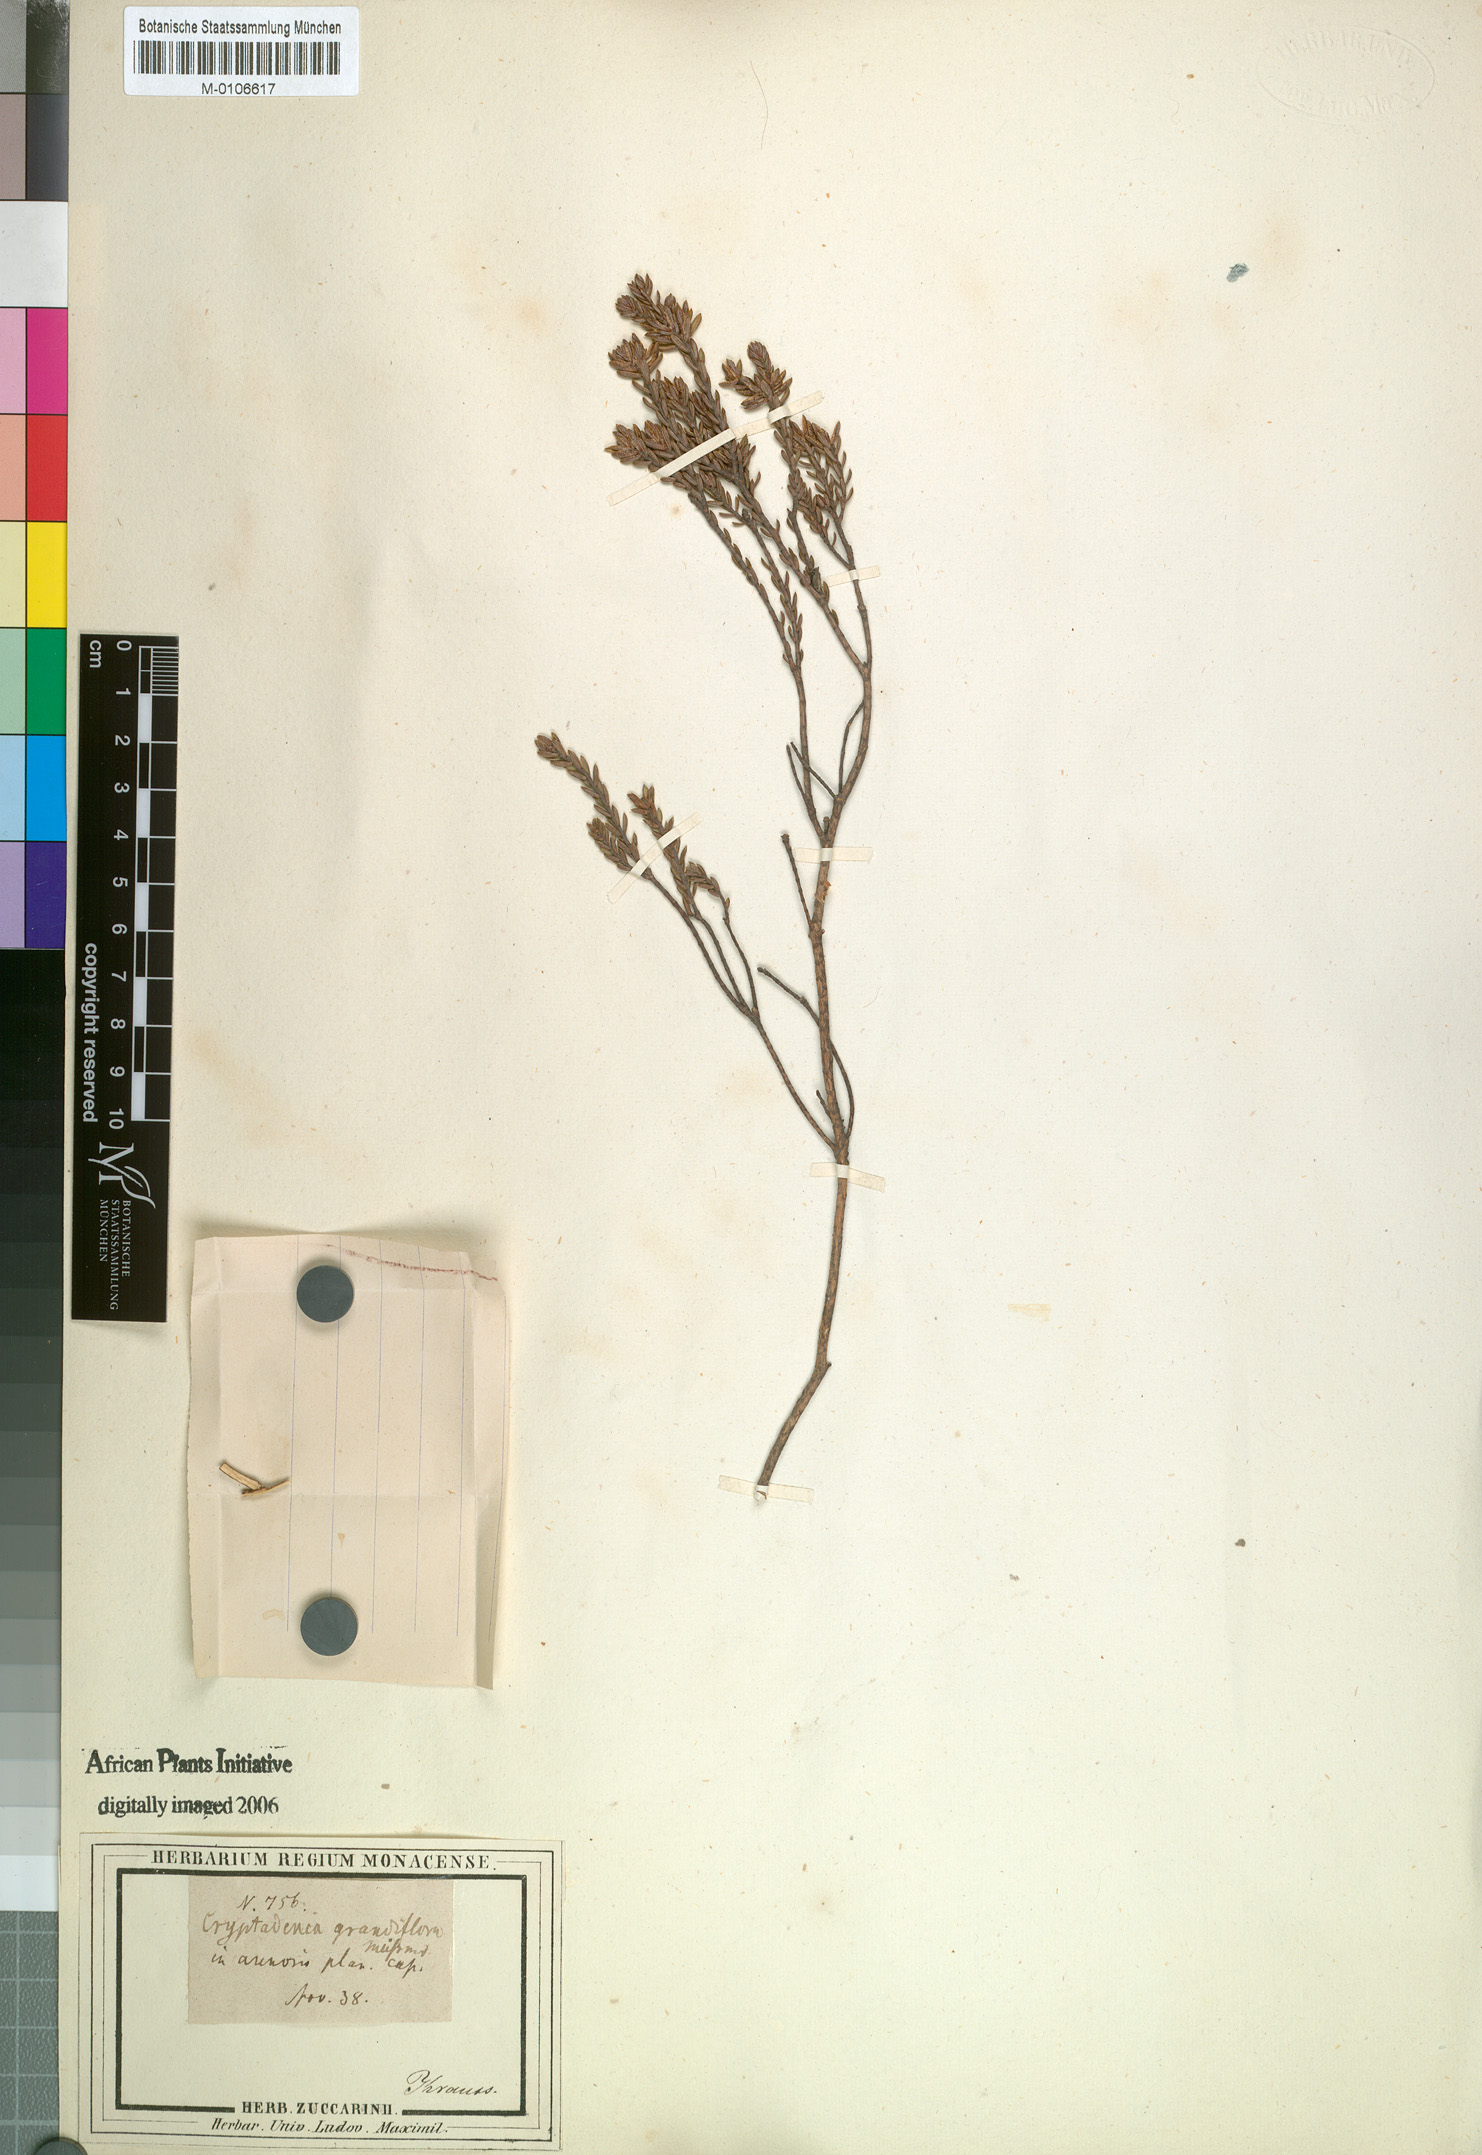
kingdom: Plantae
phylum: Tracheophyta
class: Magnoliopsida
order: Malvales
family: Thymelaeaceae
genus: Lachnaea
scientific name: Lachnaea grandiflora
